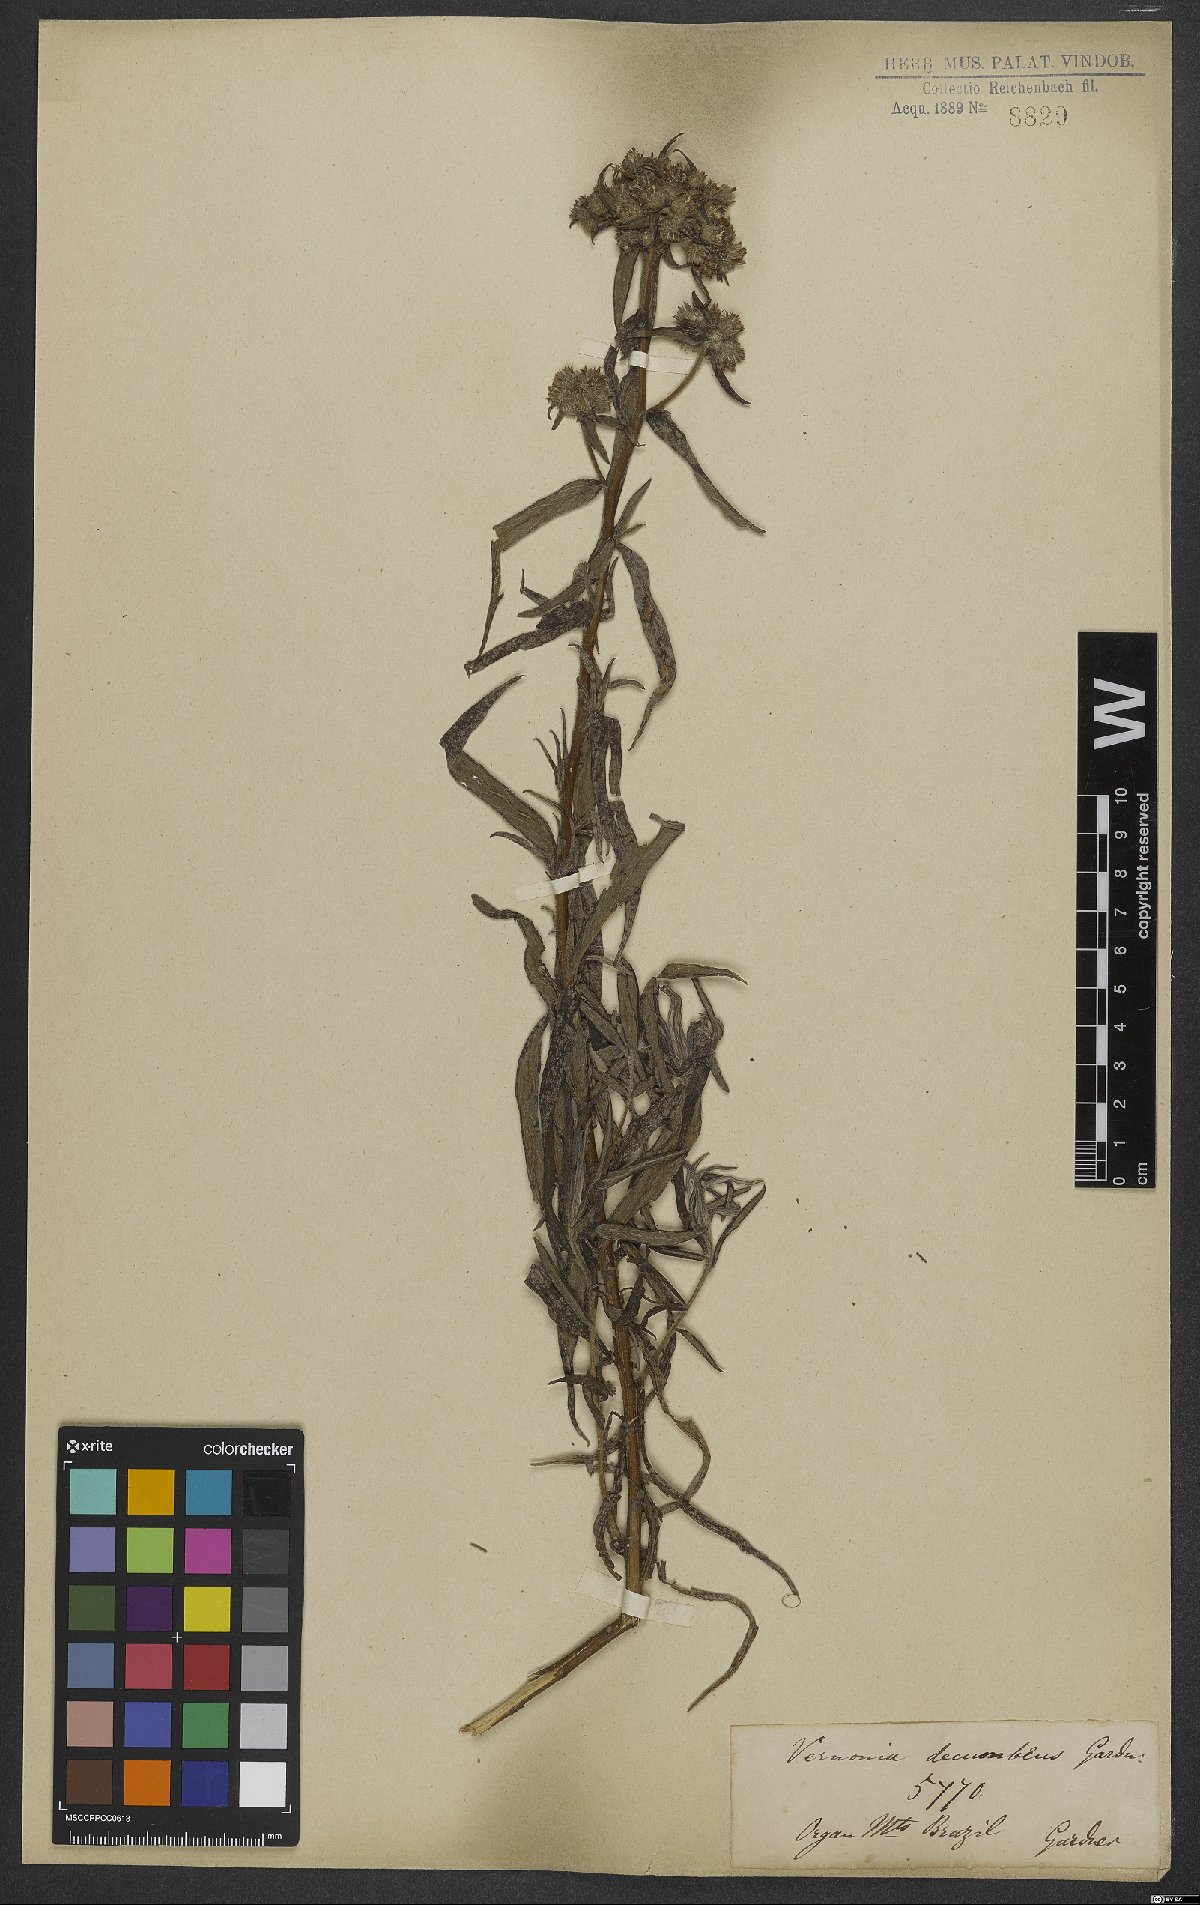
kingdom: Plantae
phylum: Tracheophyta
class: Magnoliopsida
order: Asterales
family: Asteraceae
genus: Lepidaploa
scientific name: Lepidaploa decumbens
